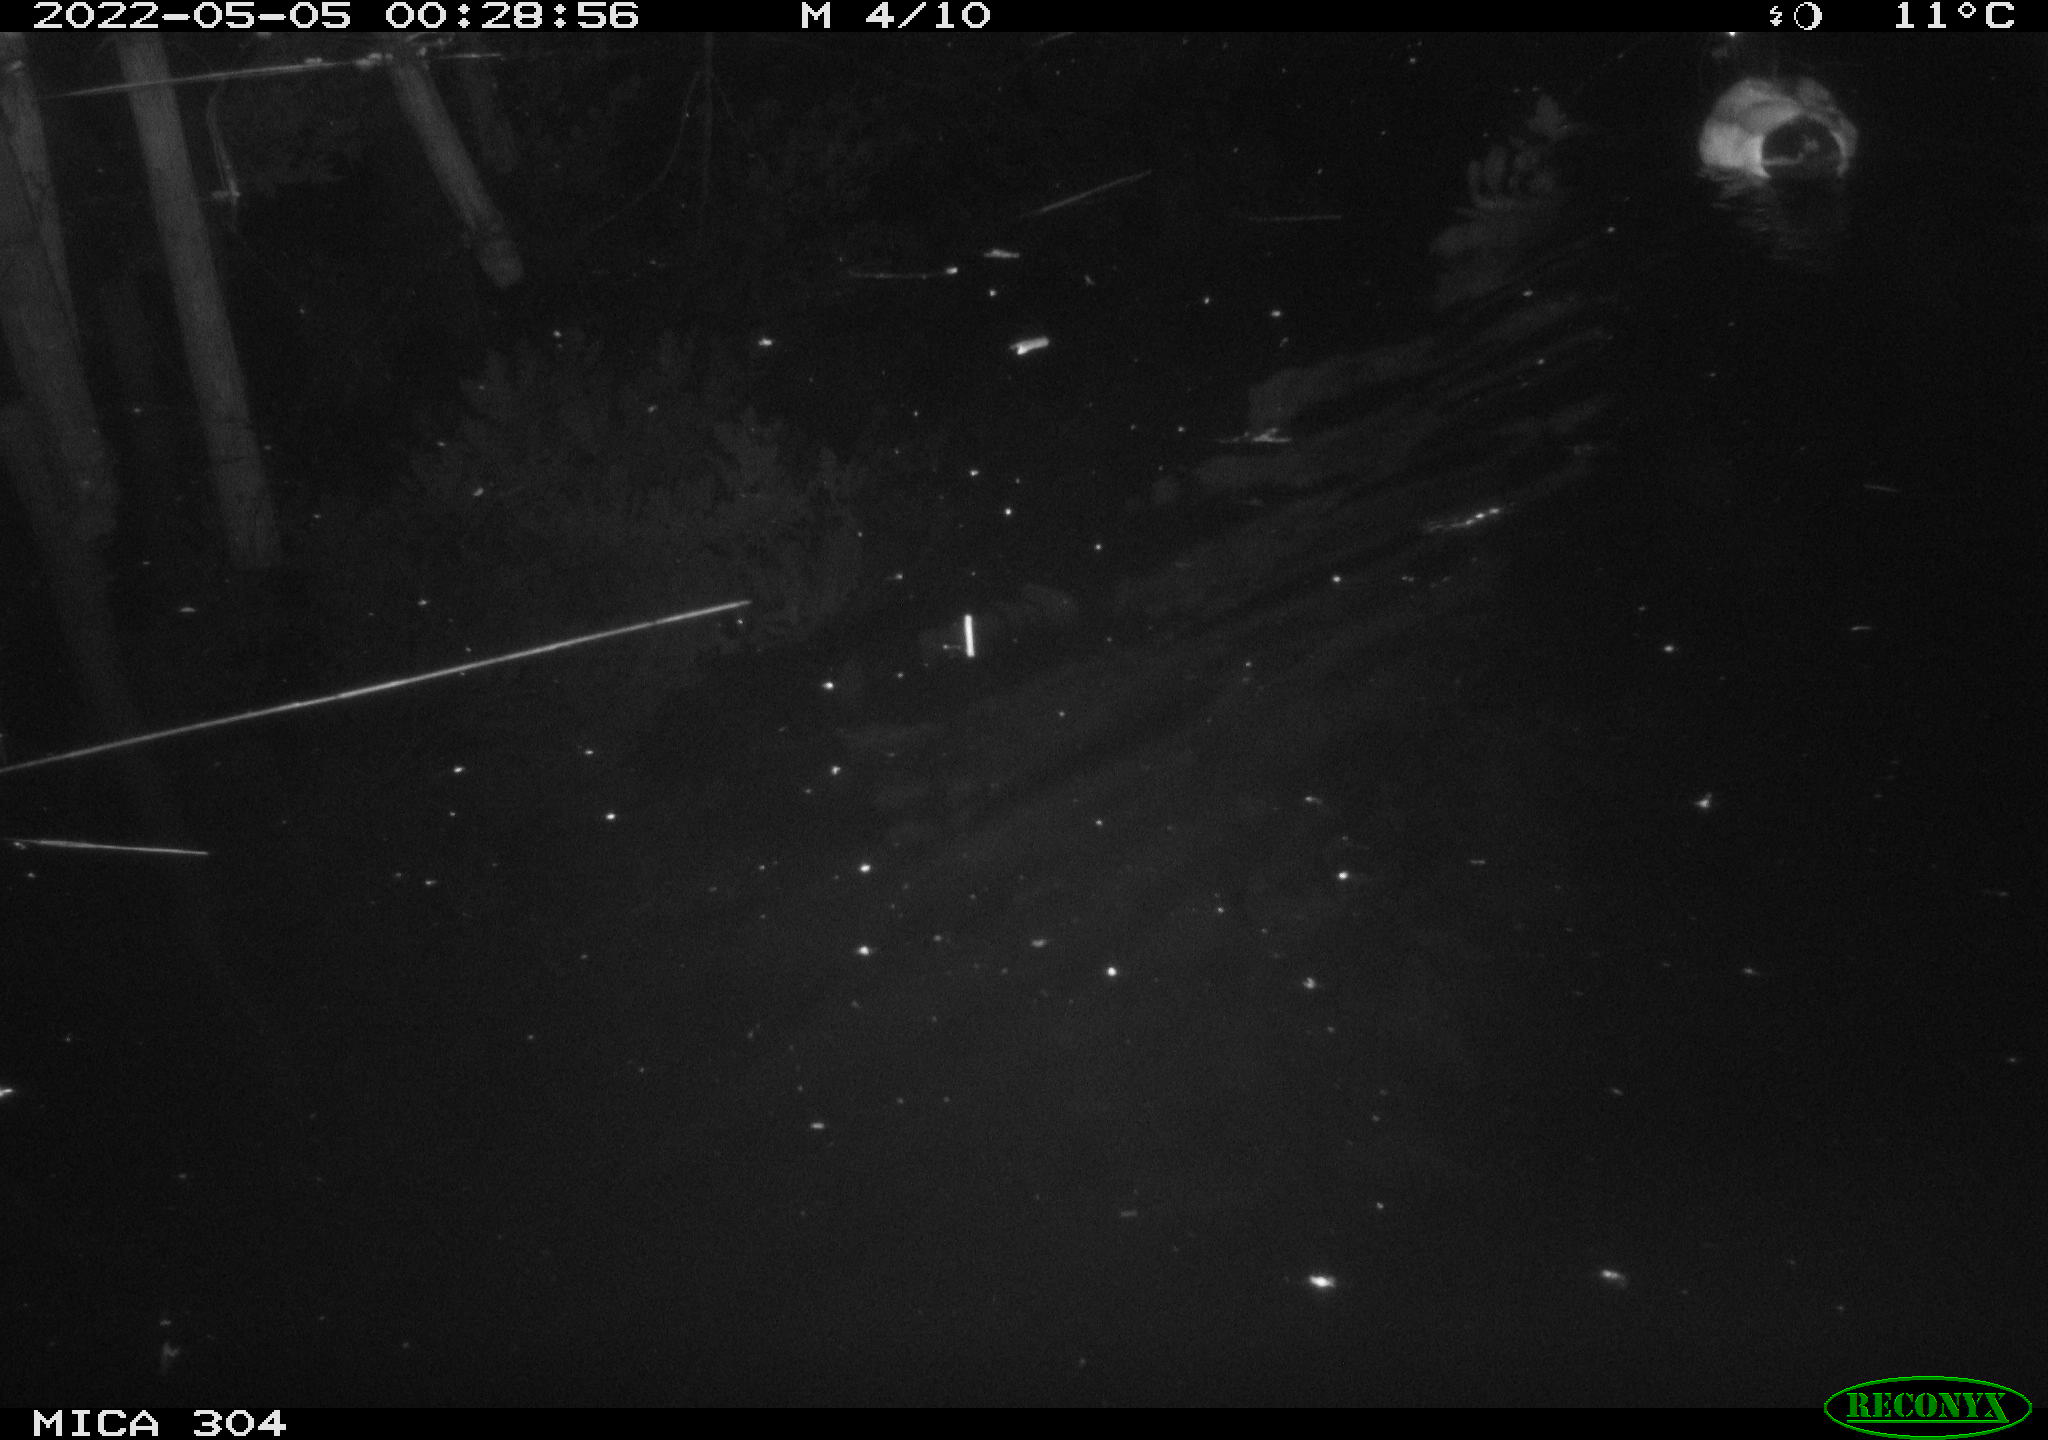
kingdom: Animalia
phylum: Chordata
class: Aves
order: Anseriformes
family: Anatidae
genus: Anas
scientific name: Anas platyrhynchos
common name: Mallard
